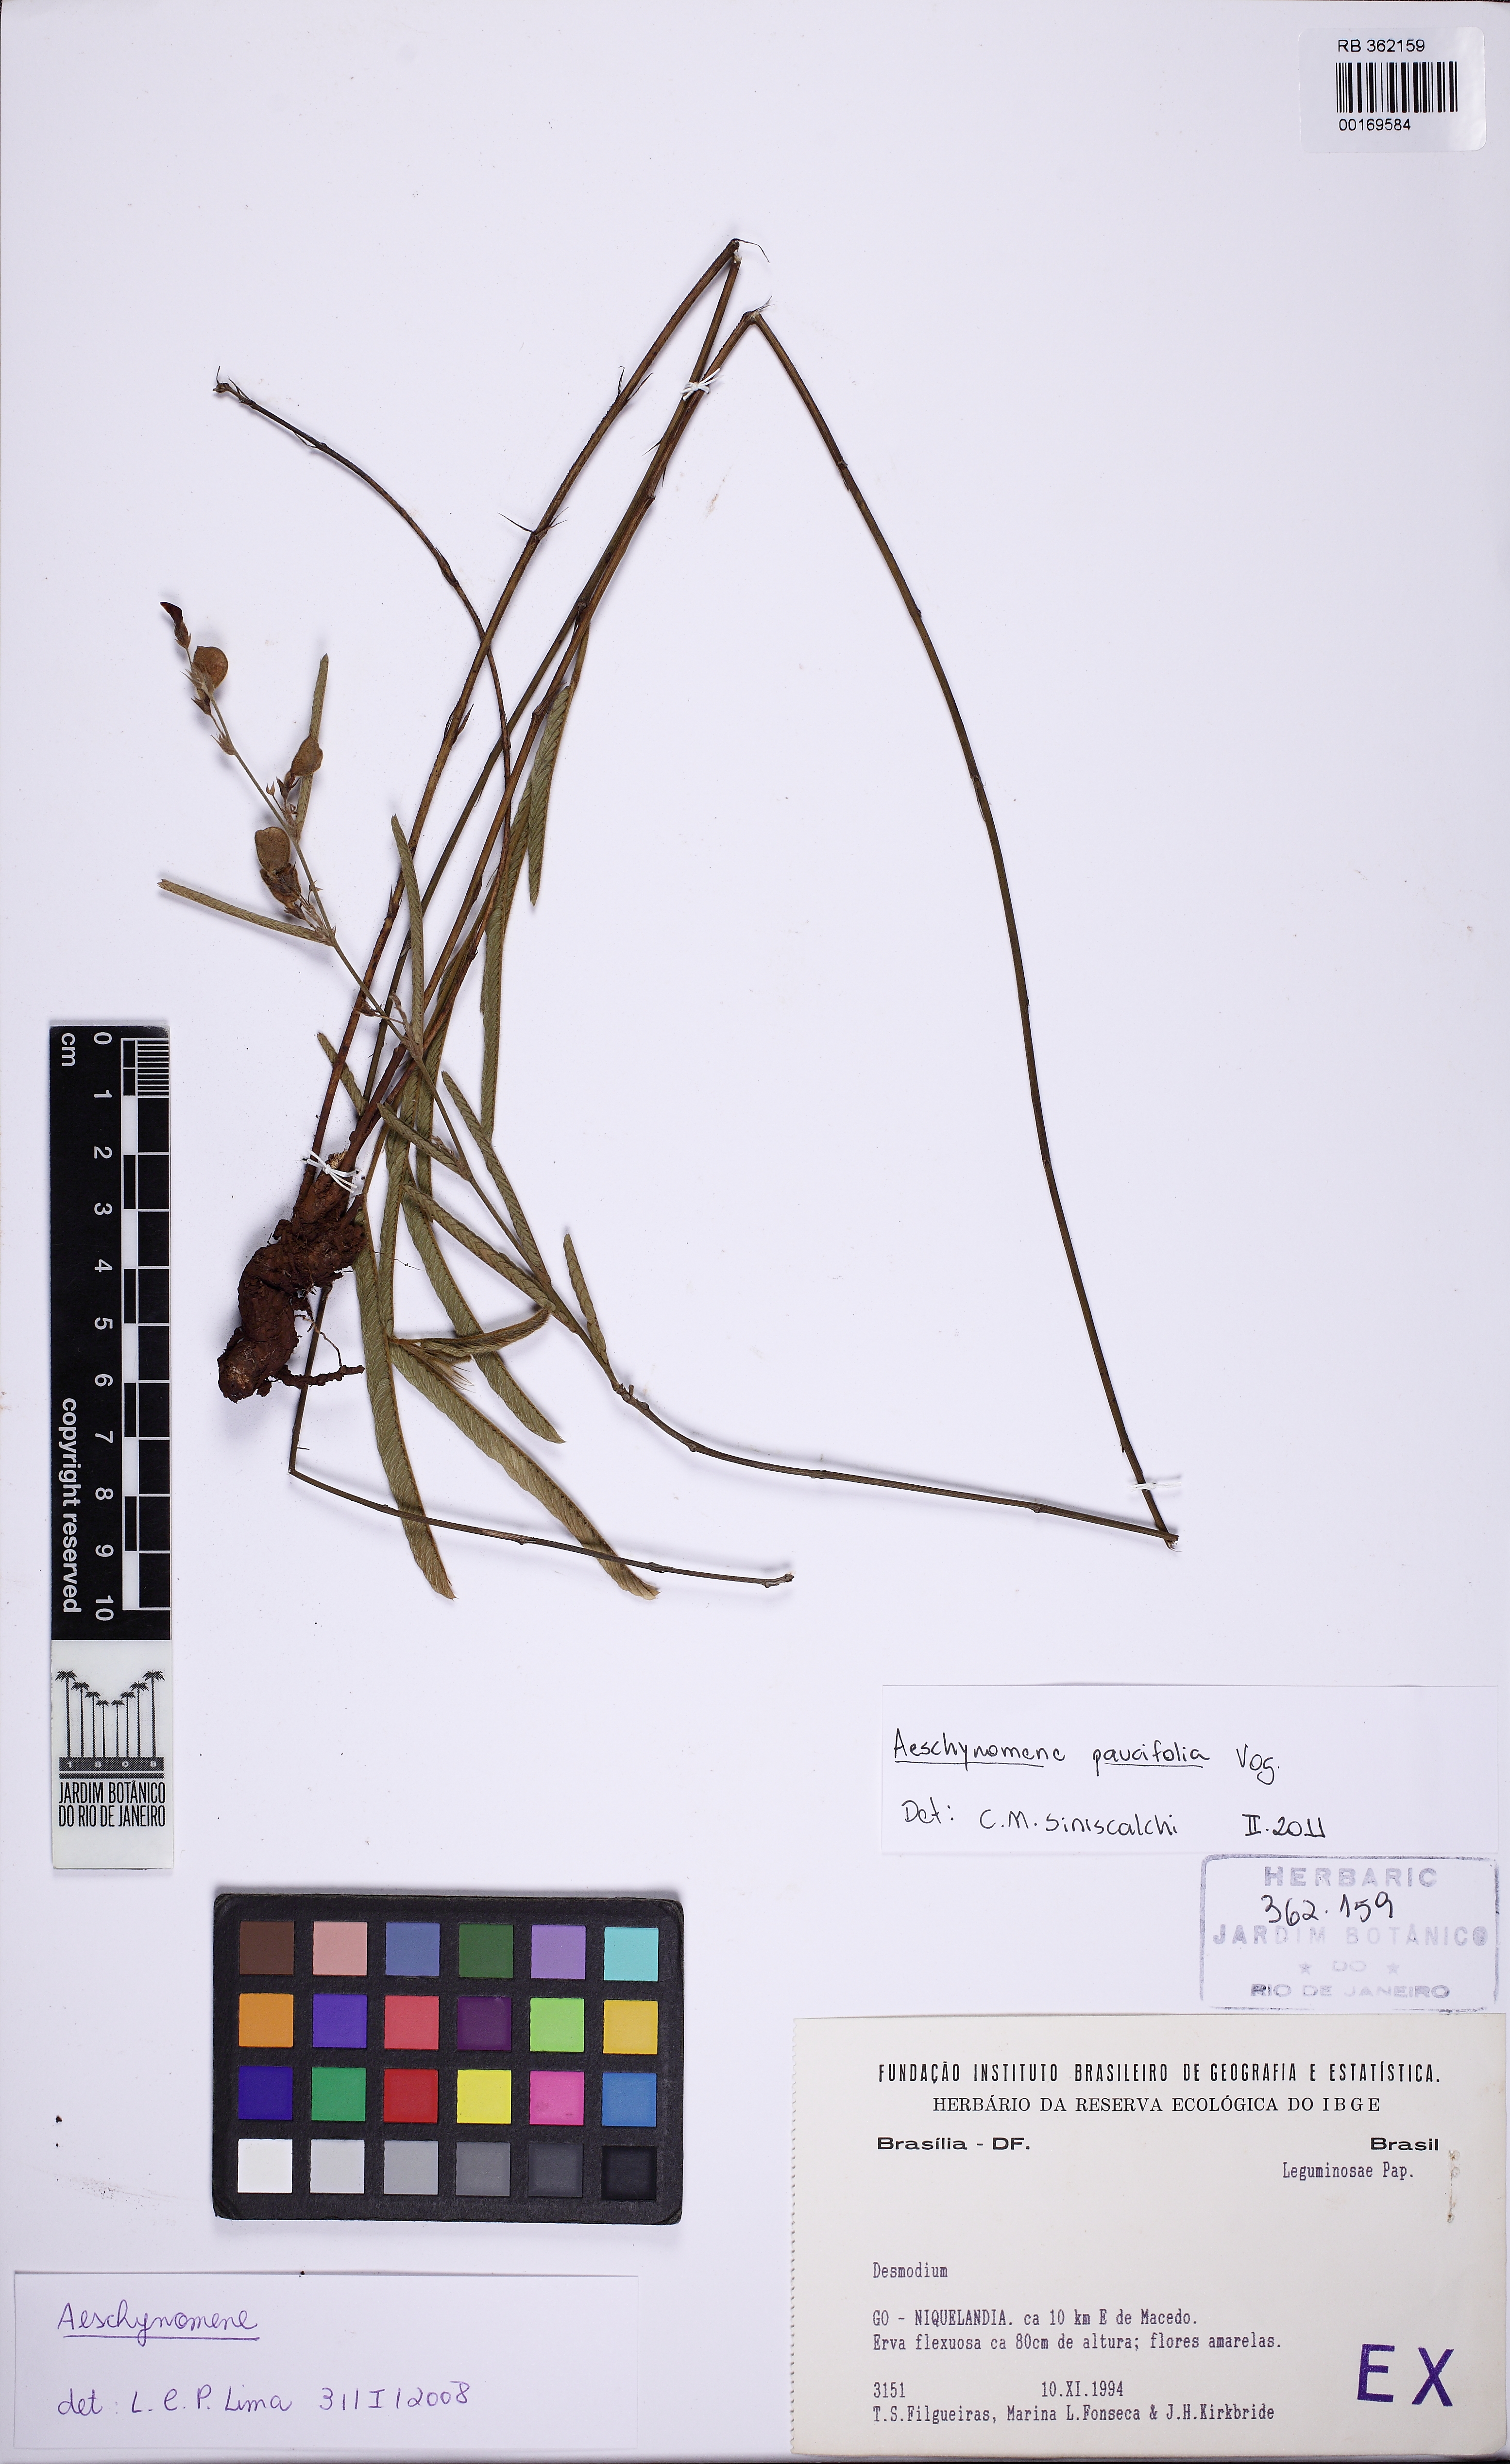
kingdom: Plantae
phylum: Tracheophyta
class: Magnoliopsida
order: Fabales
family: Fabaceae
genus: Ctenodon
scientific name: Ctenodon paucifolius
